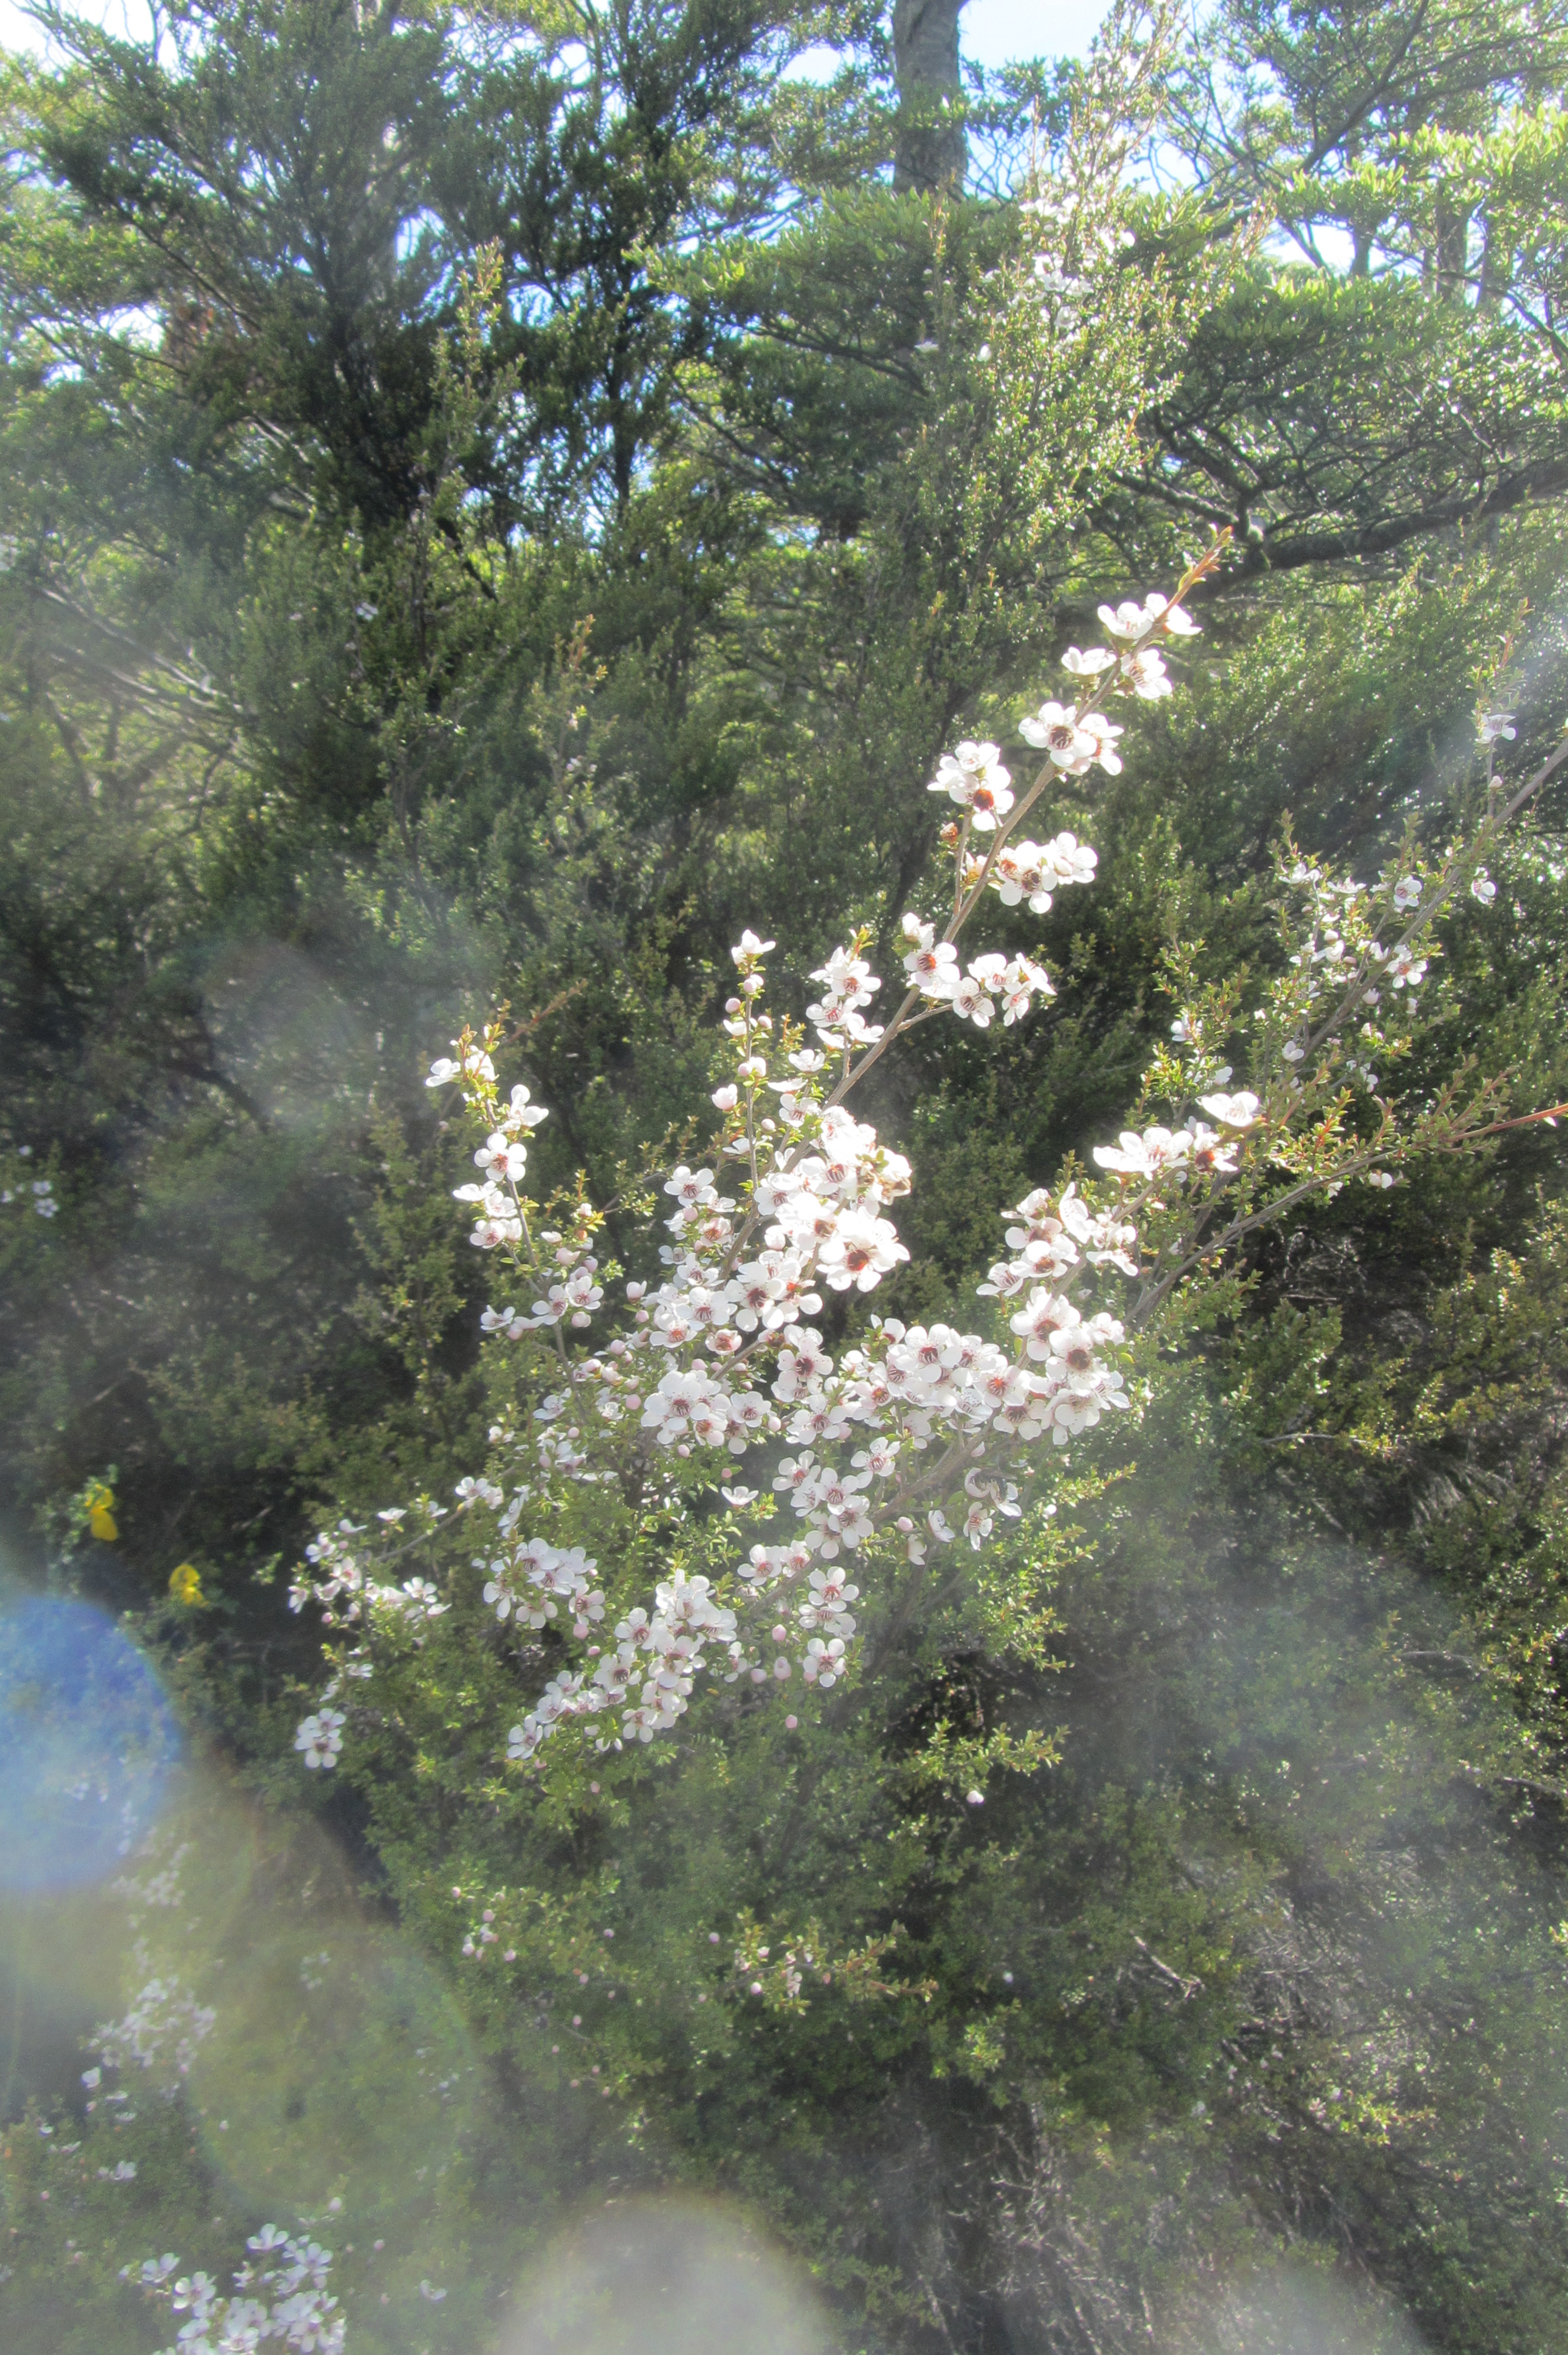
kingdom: Plantae
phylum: Tracheophyta
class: Magnoliopsida
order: Myrtales
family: Myrtaceae
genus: Leptospermum
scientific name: Leptospermum scoparium
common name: Broom tea-tree
